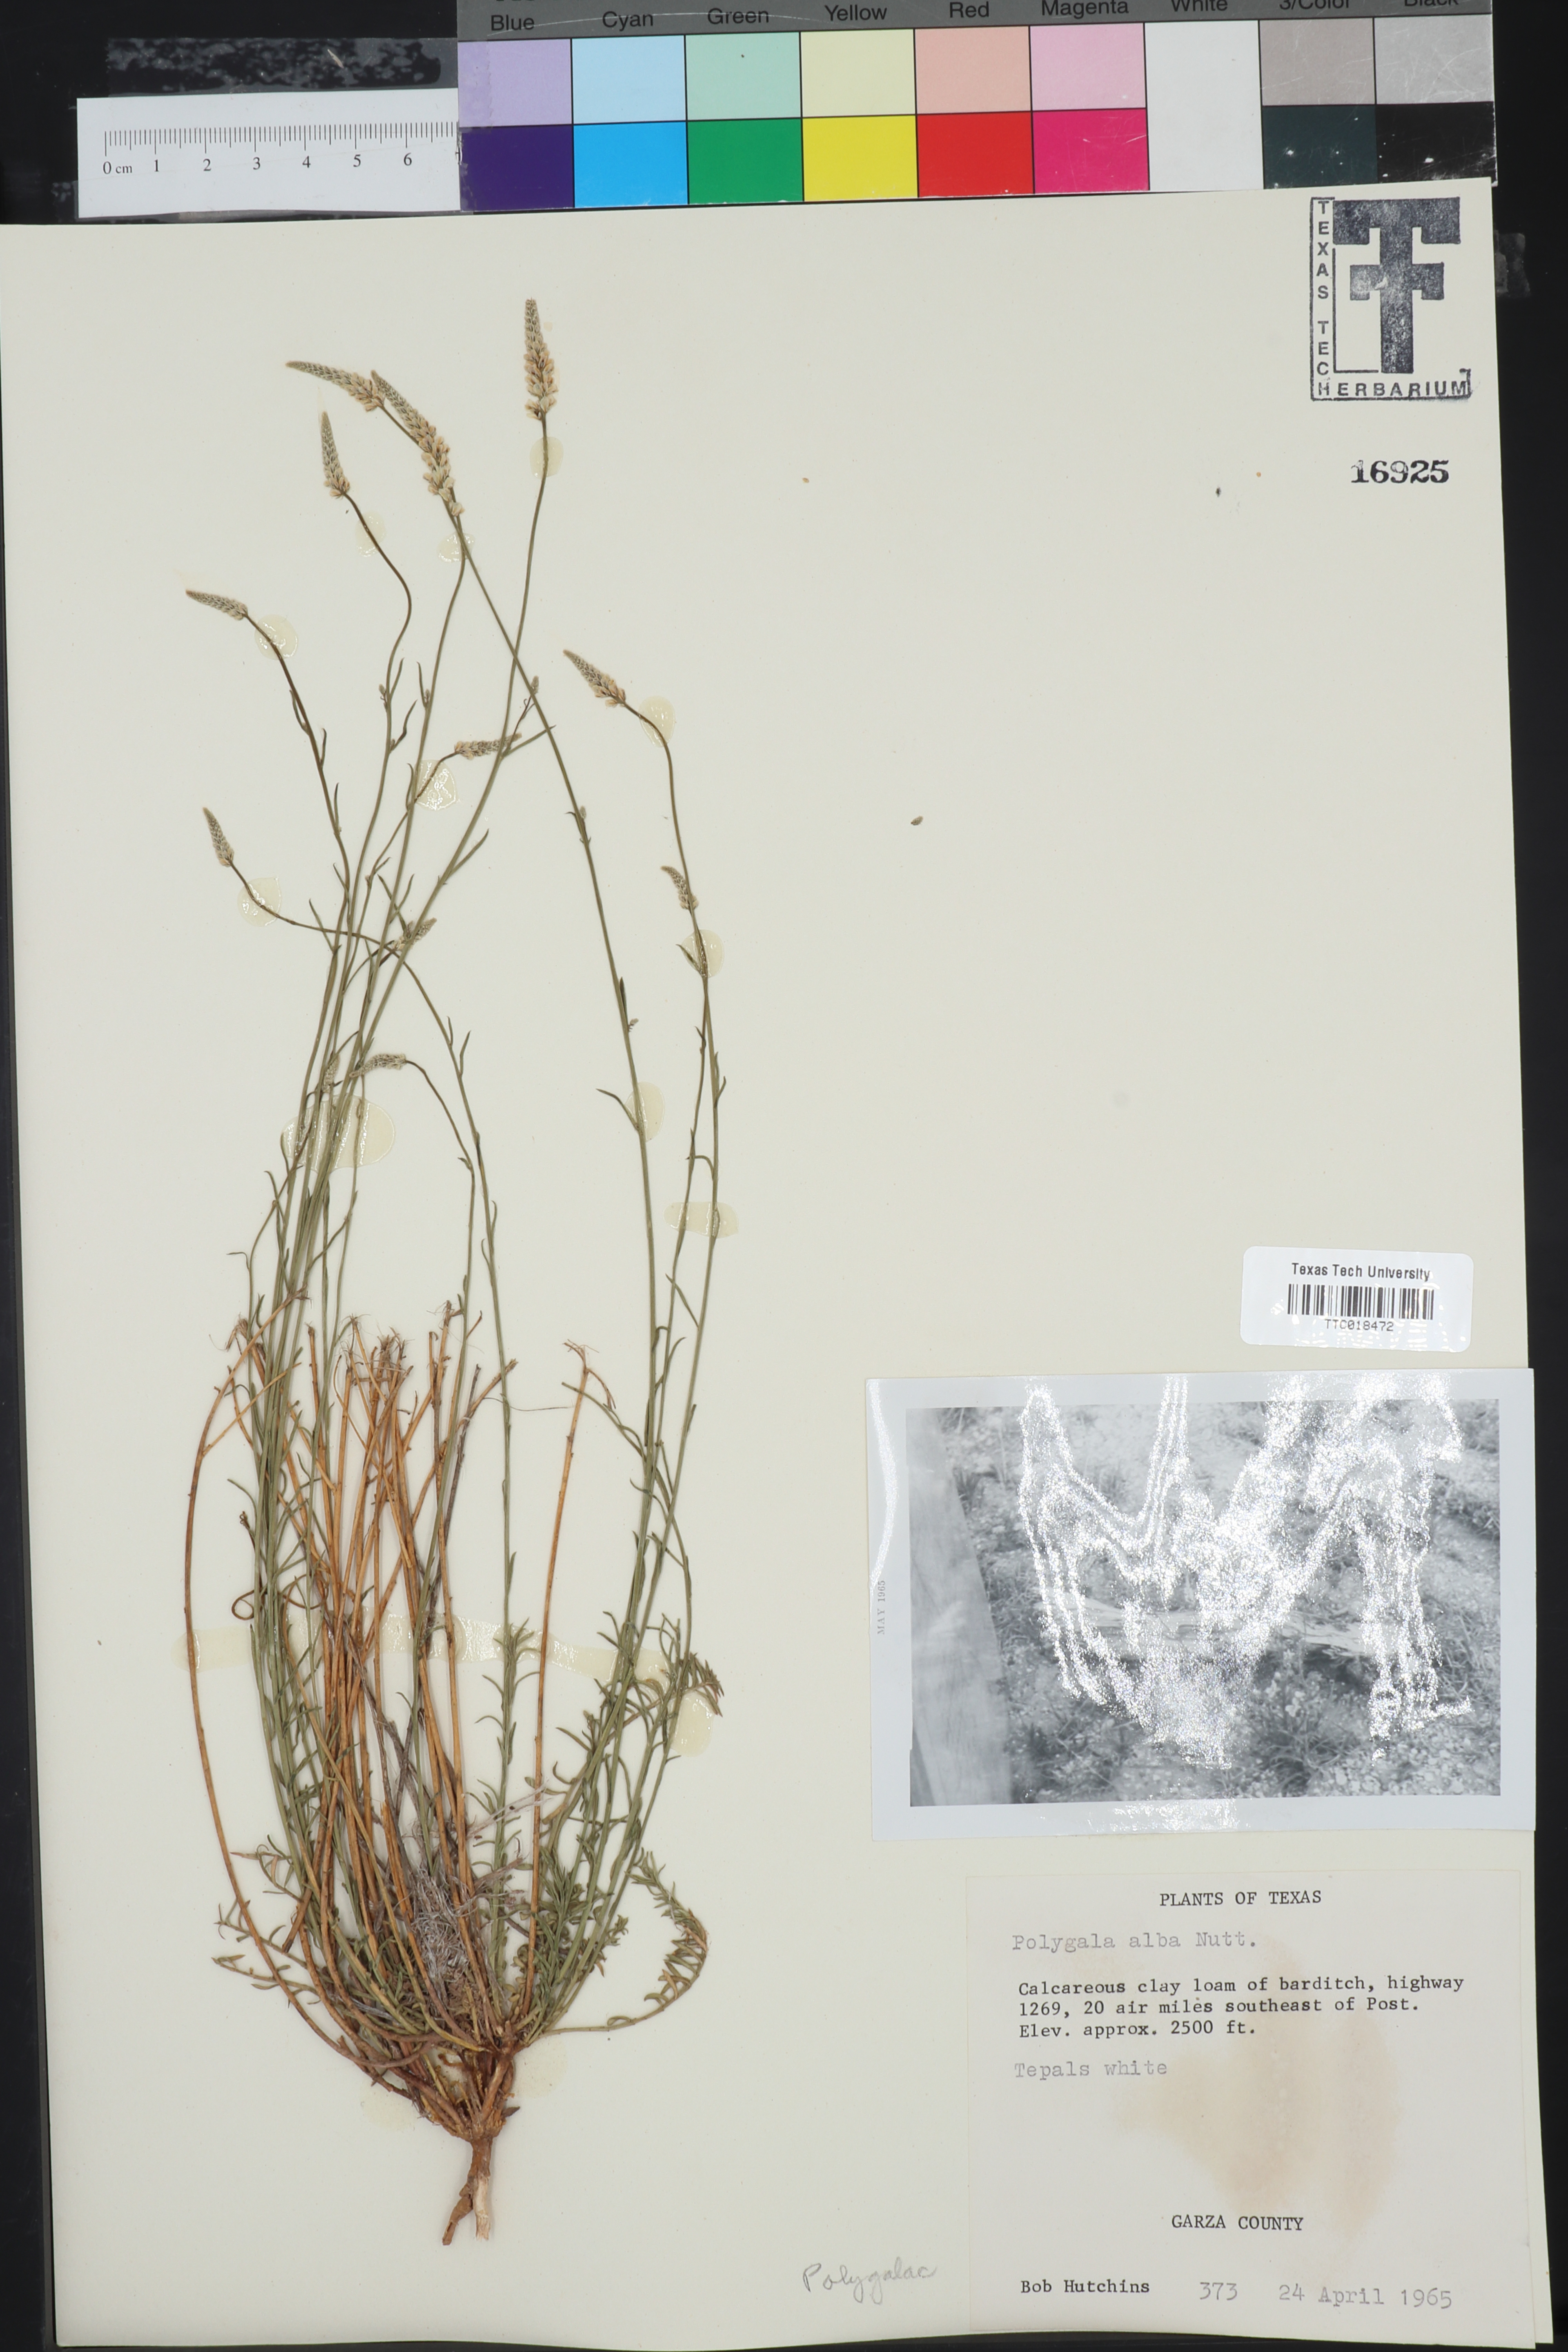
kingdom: Plantae
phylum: Tracheophyta
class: Magnoliopsida
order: Fabales
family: Polygalaceae
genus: Polygala
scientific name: Polygala alba
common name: White milkwort
